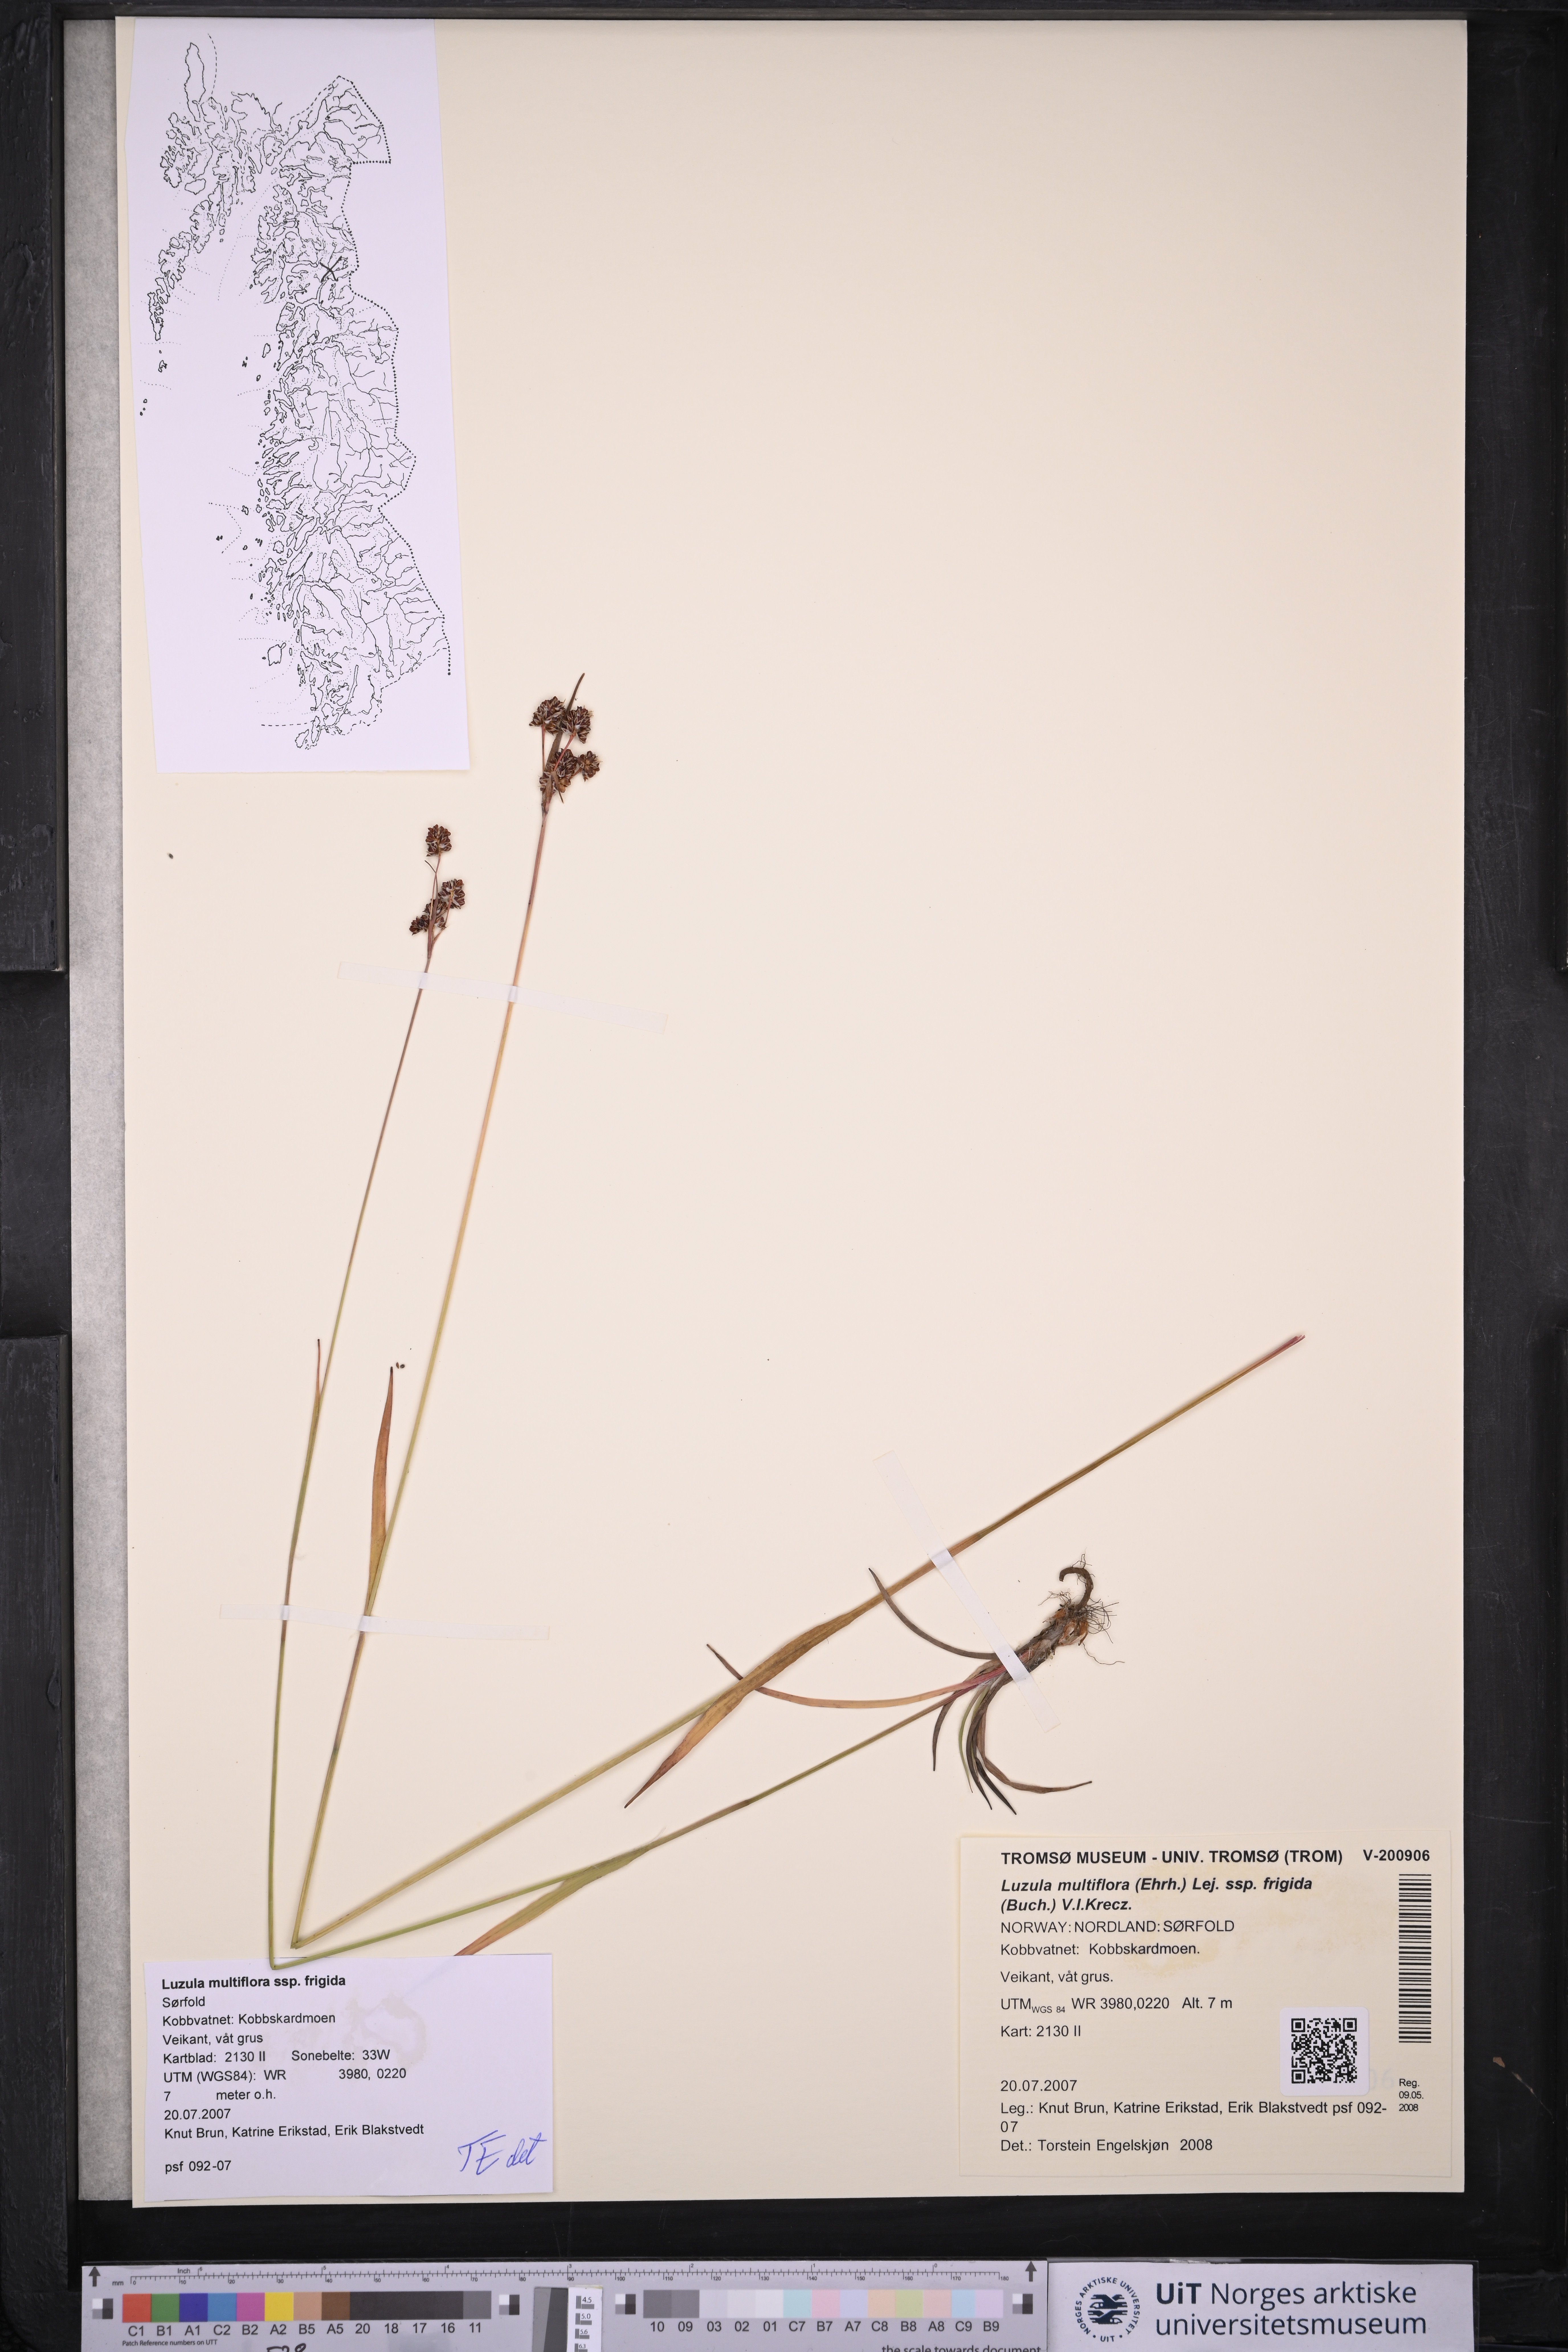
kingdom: Plantae
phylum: Tracheophyta
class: Liliopsida
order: Poales
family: Juncaceae
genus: Luzula
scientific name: Luzula multiflora
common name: Heath wood-rush
